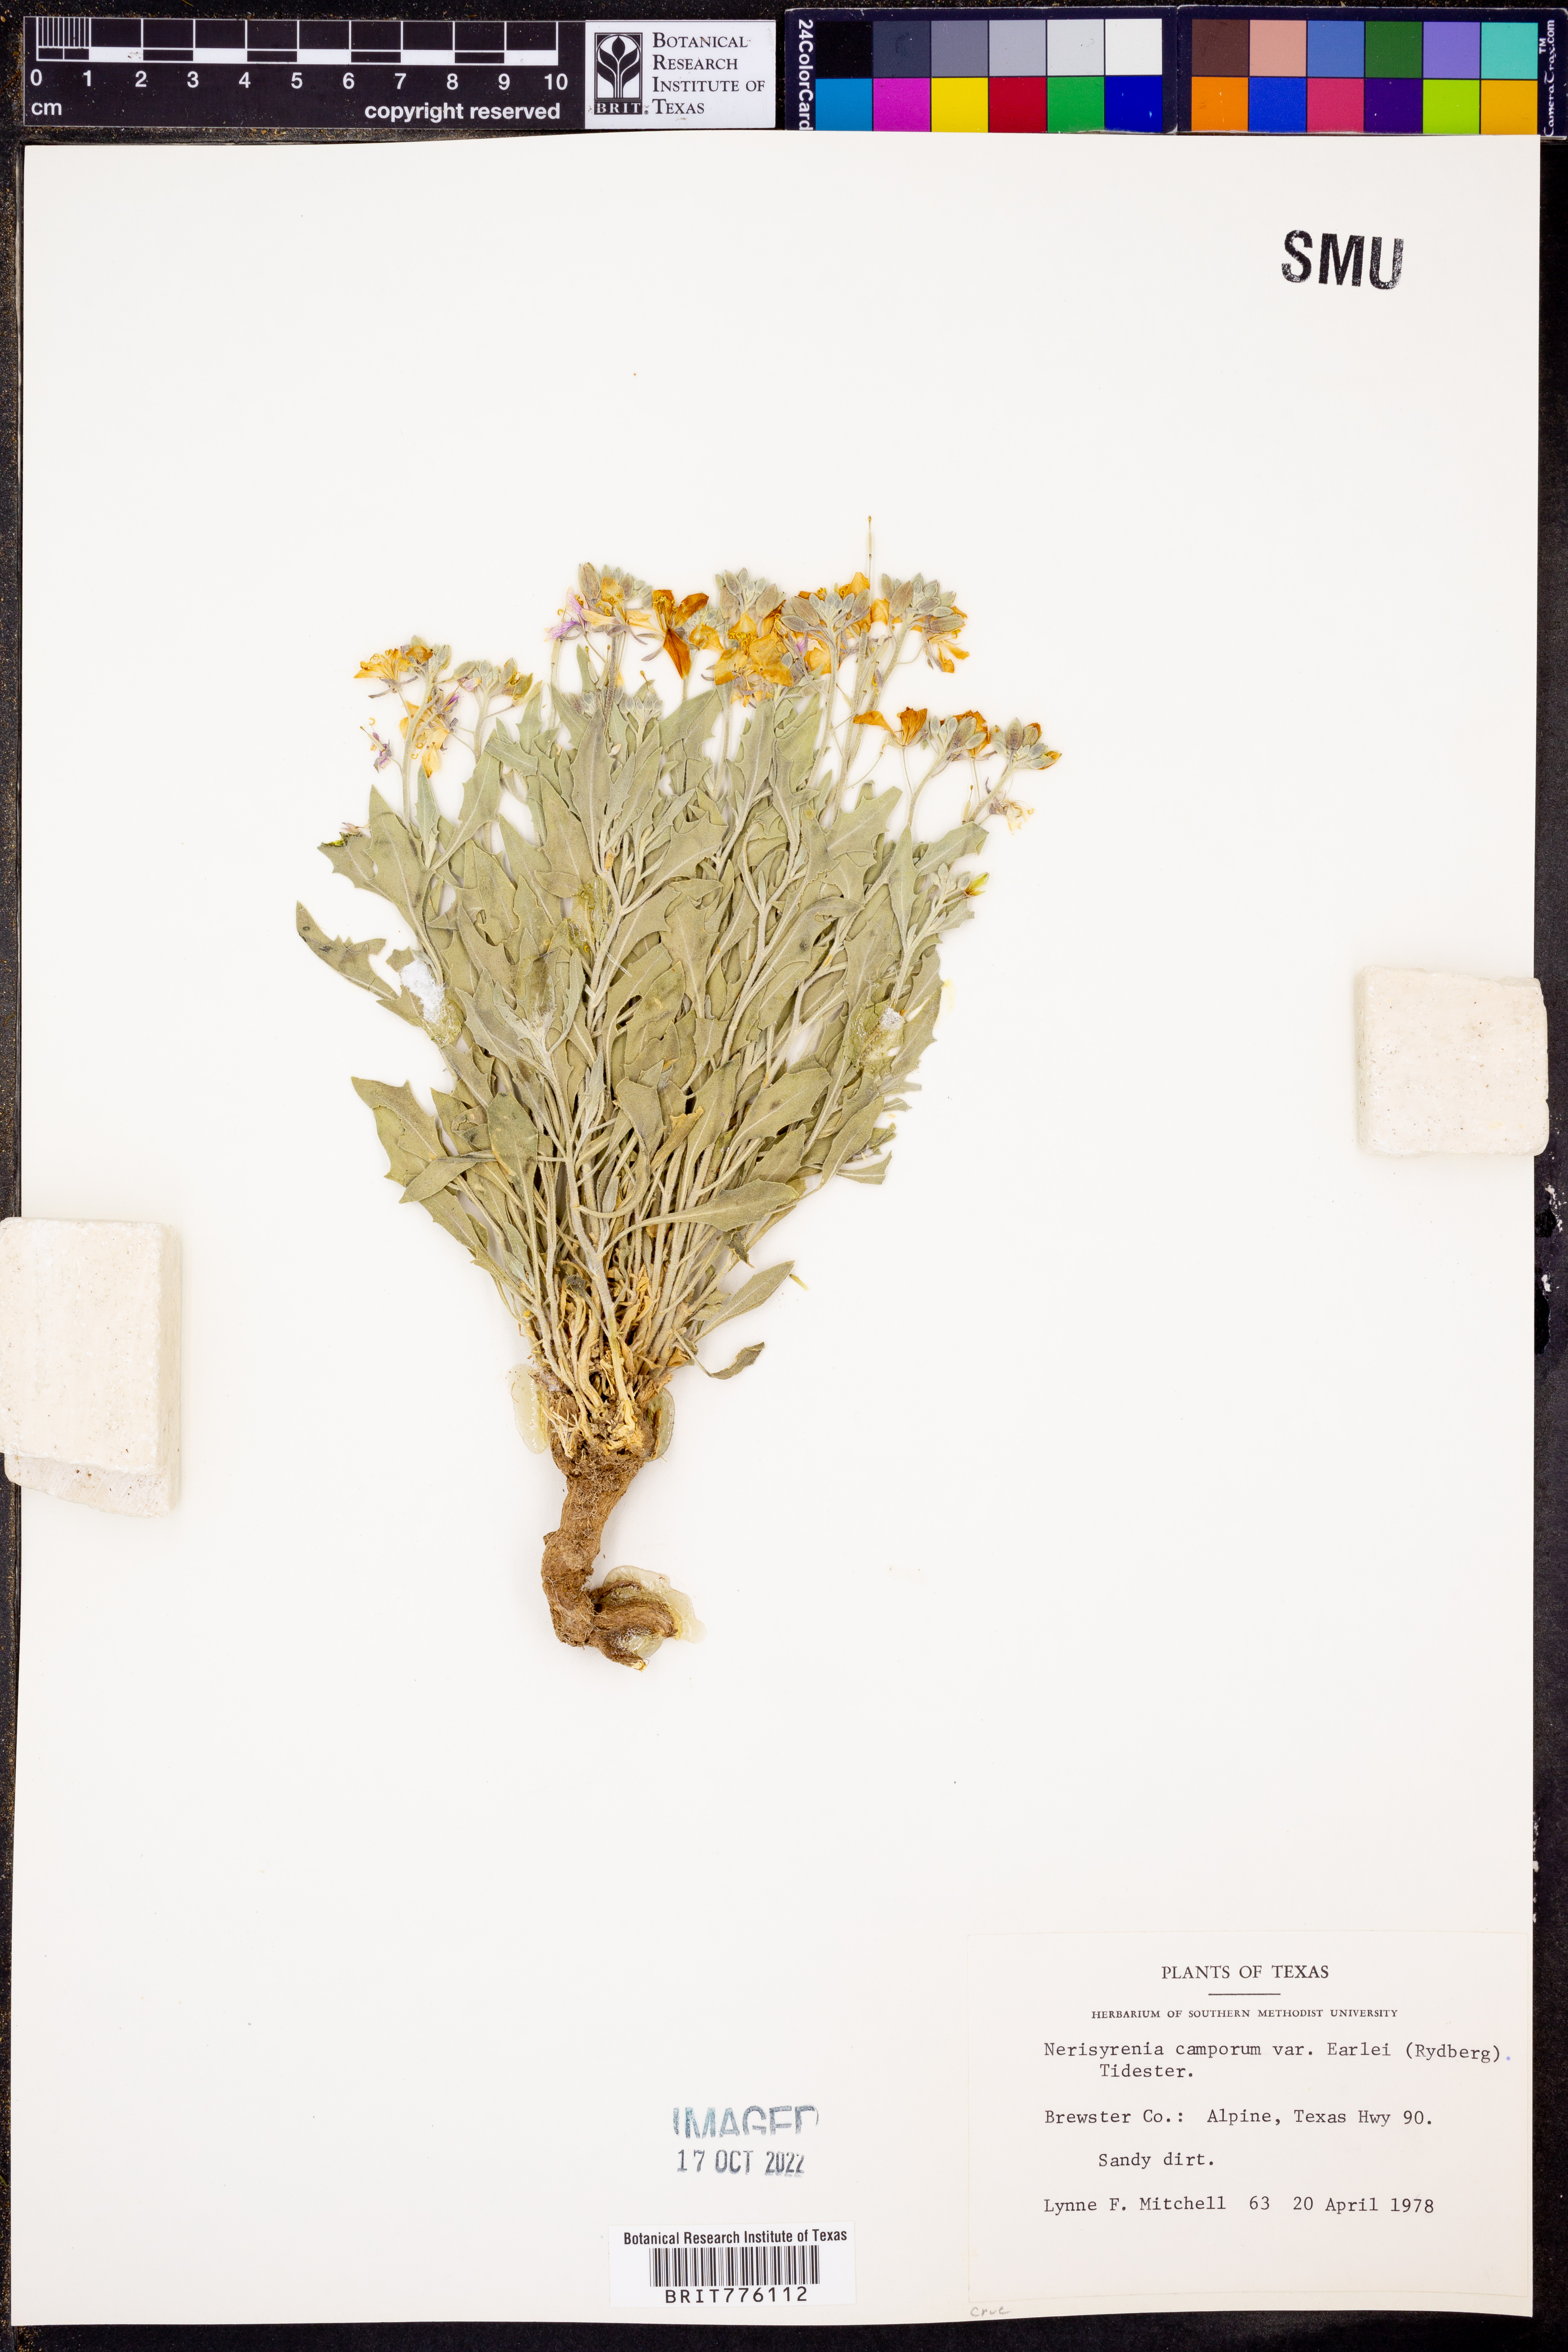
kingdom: Plantae
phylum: Tracheophyta
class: Magnoliopsida
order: Brassicales
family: Brassicaceae
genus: Nerisyrenia
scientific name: Nerisyrenia camporum
